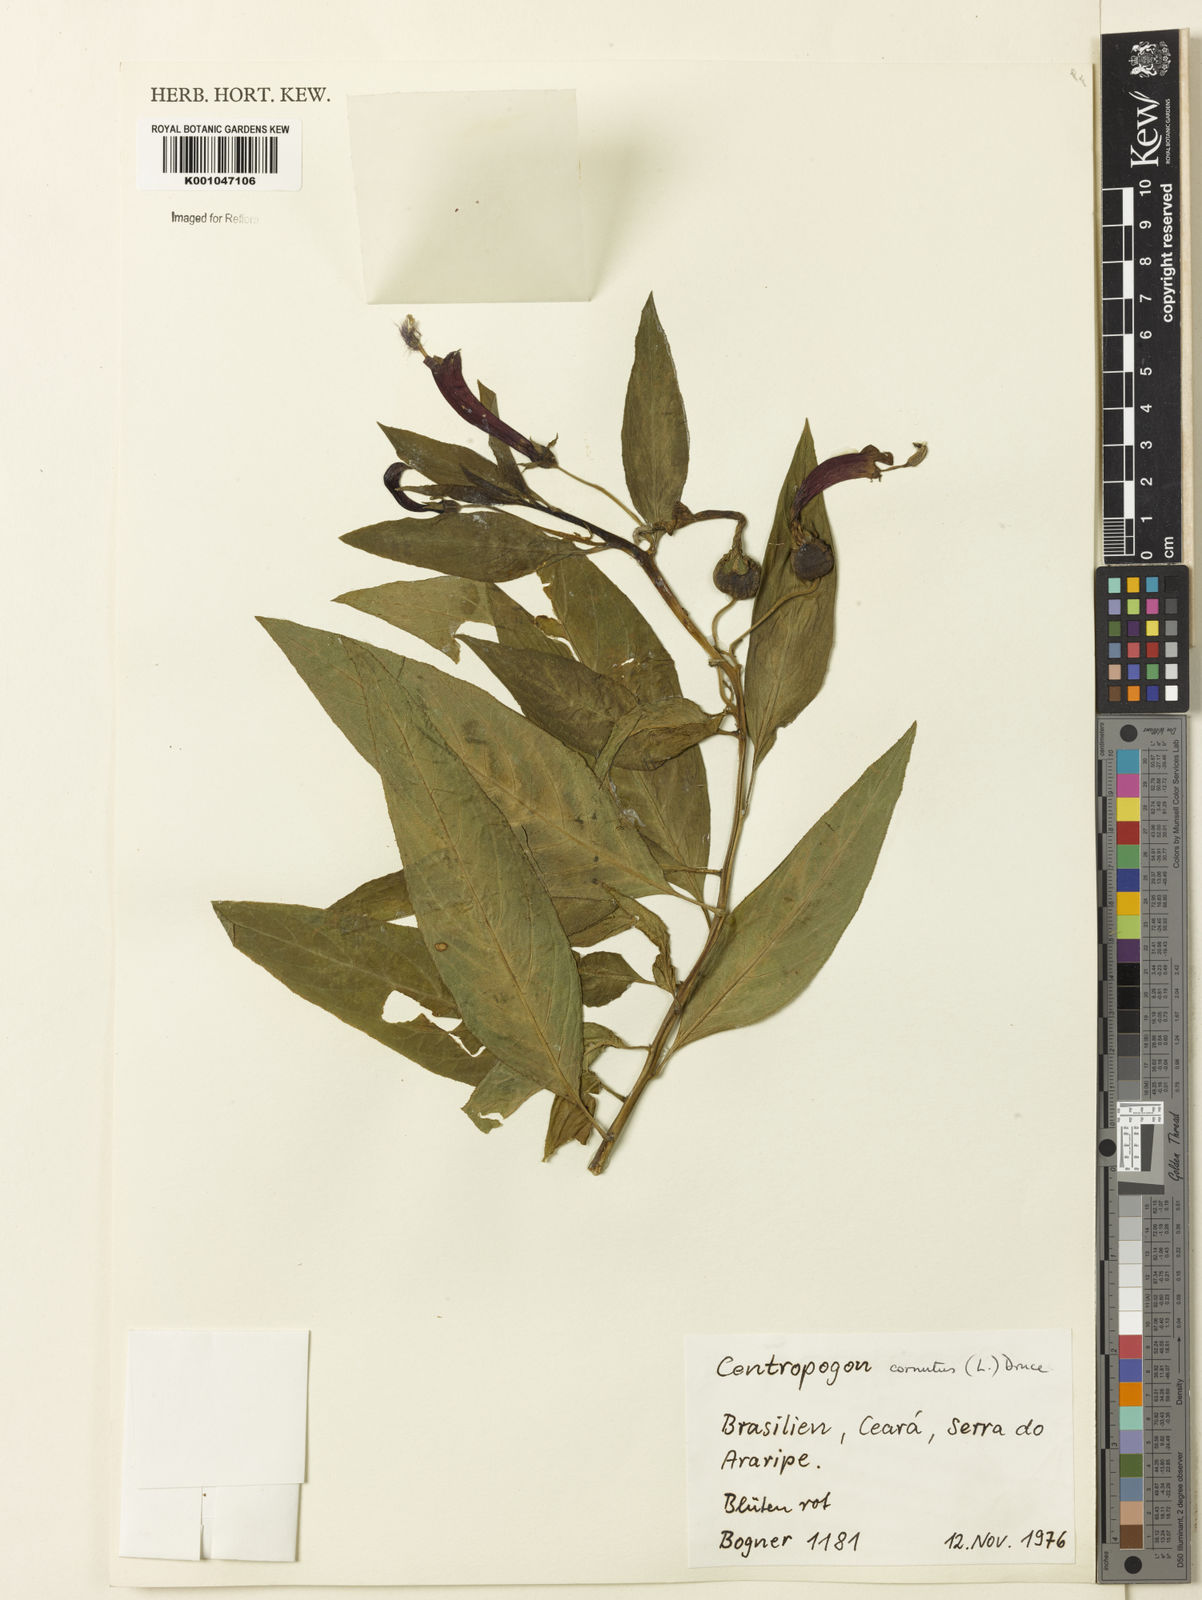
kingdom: Plantae
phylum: Tracheophyta
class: Magnoliopsida
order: Asterales
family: Campanulaceae
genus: Centropogon
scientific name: Centropogon cornutus
